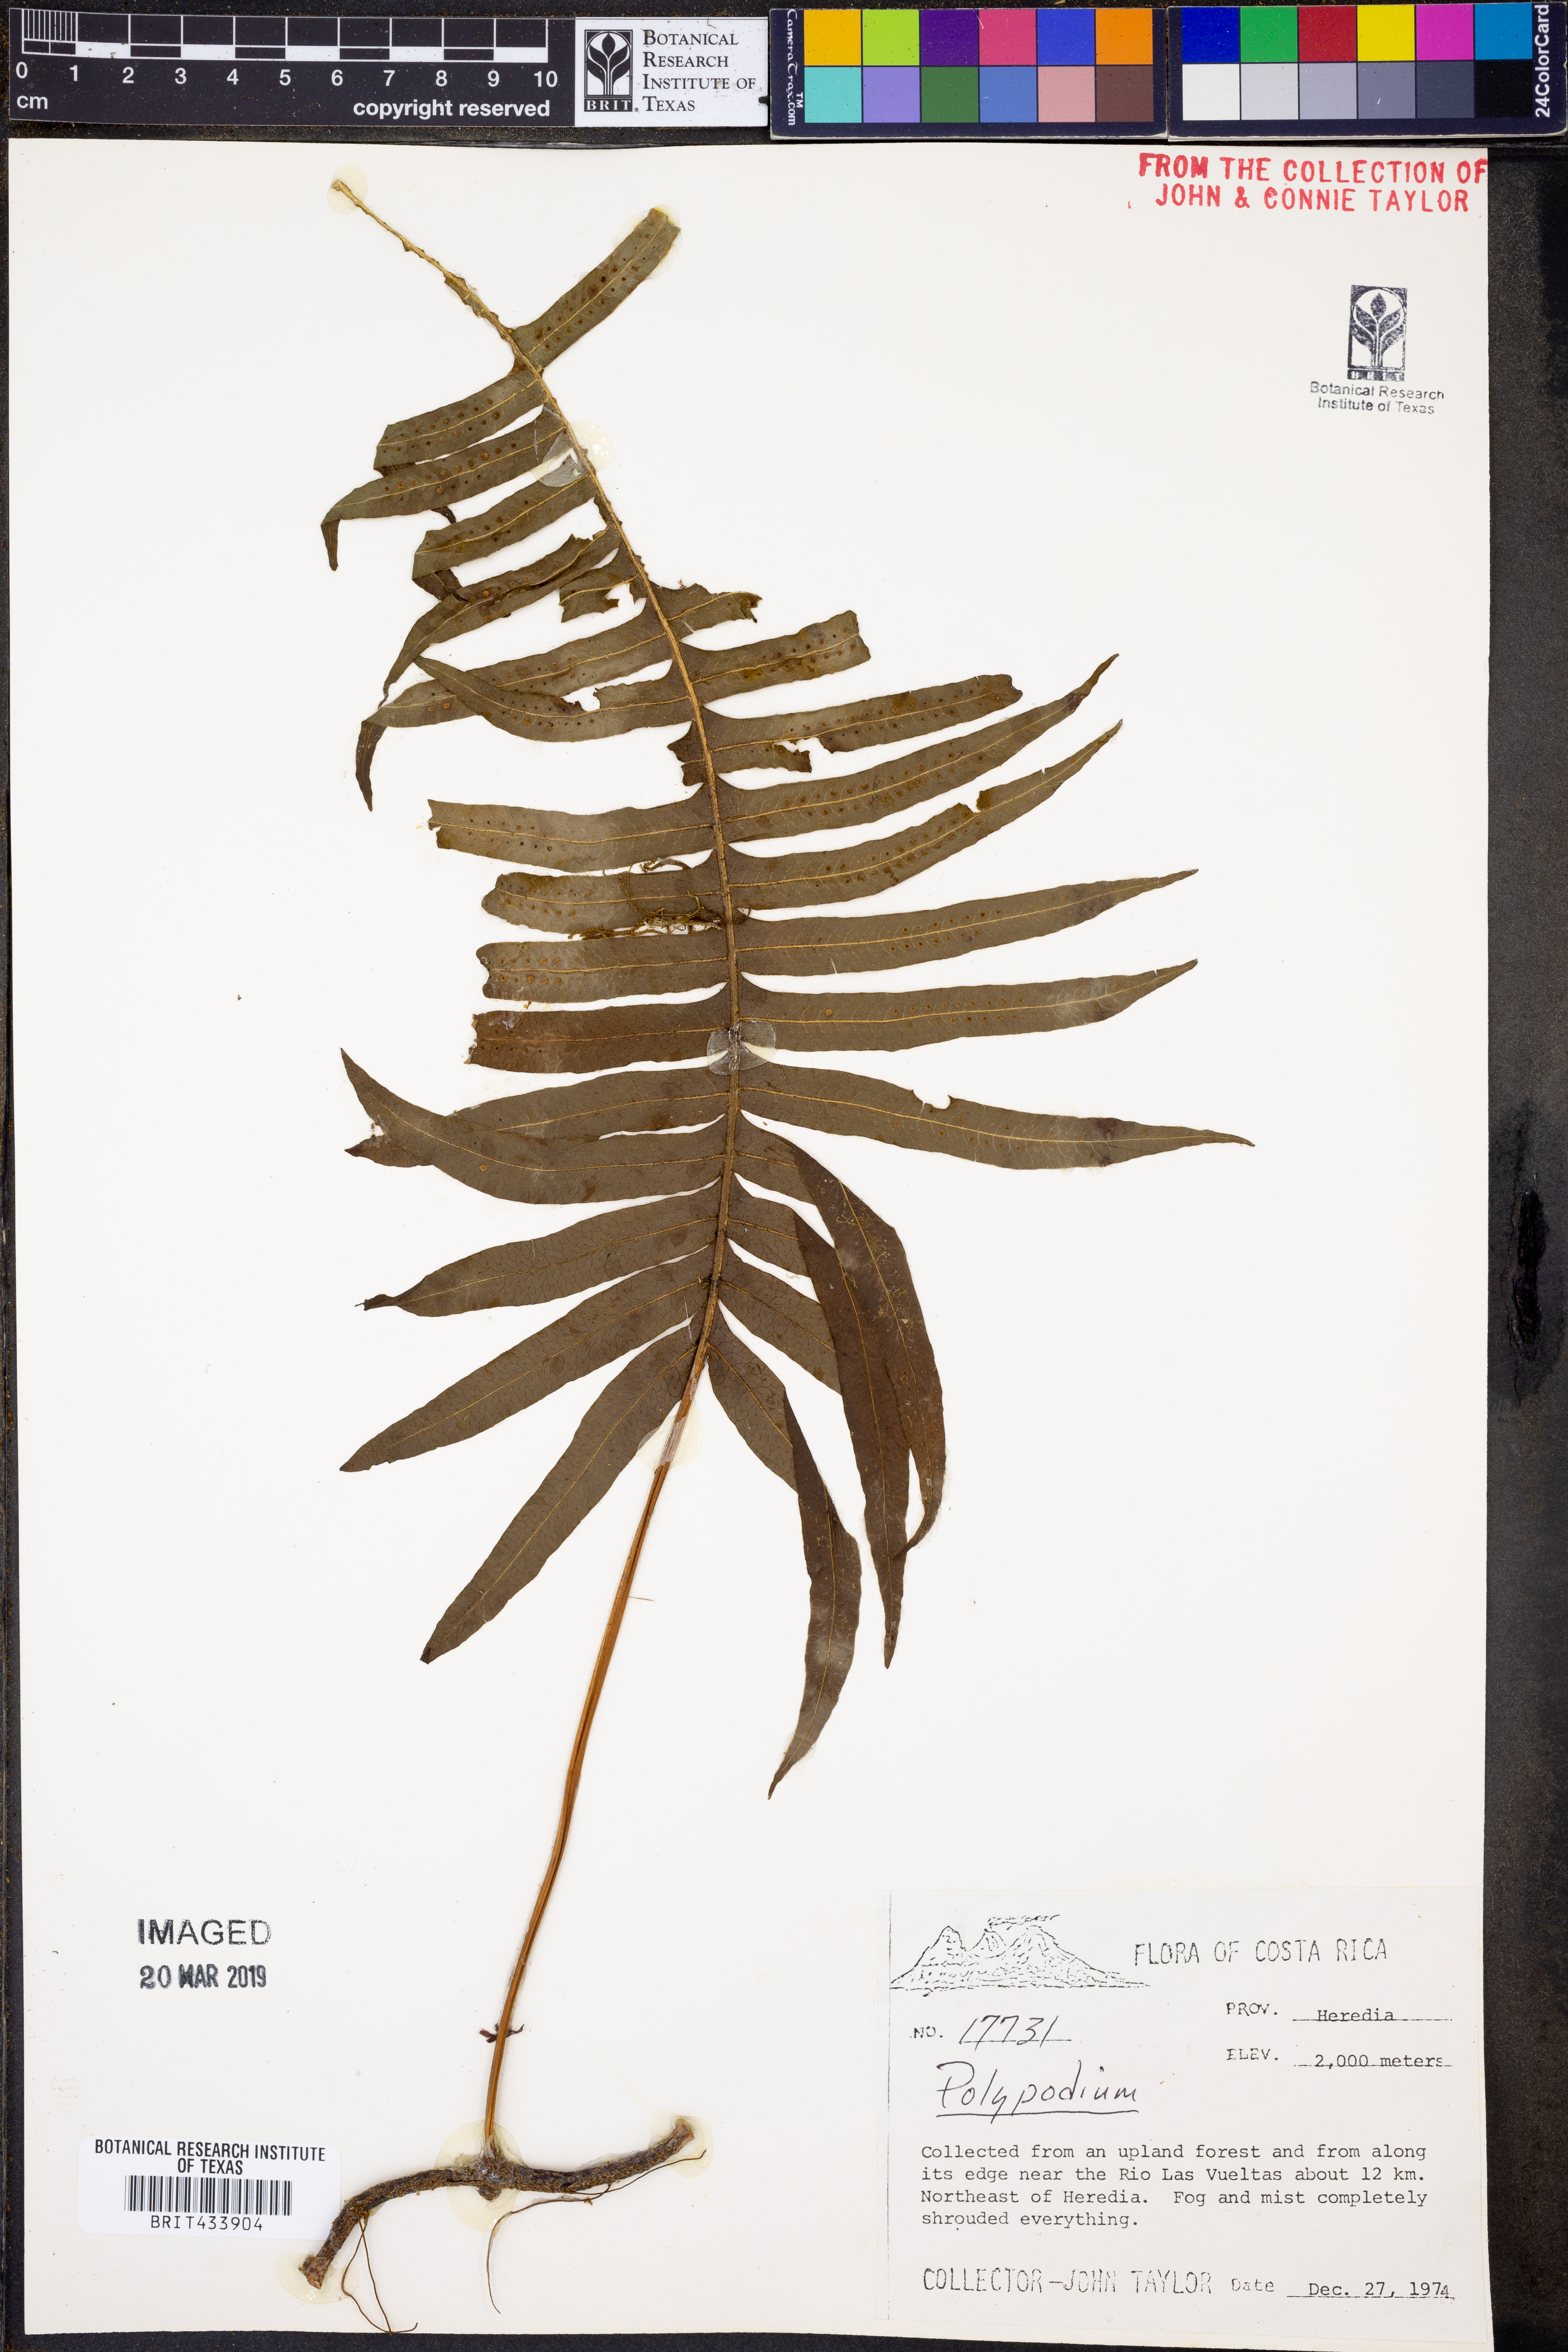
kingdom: Plantae
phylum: Tracheophyta
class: Polypodiopsida
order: Polypodiales
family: Polypodiaceae
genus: Polypodium
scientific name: Polypodium
